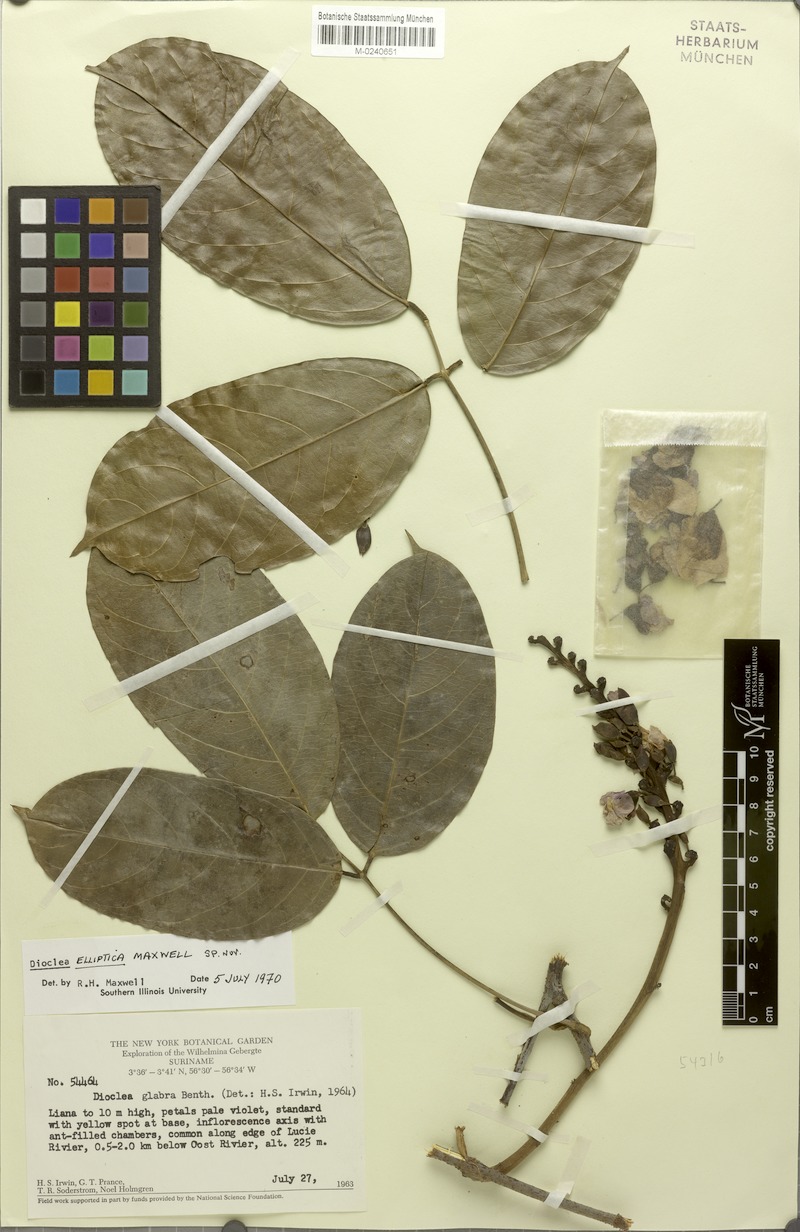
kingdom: Plantae
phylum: Tracheophyta
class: Magnoliopsida
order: Fabales
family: Fabaceae
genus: Macropsychanthus
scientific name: Macropsychanthus scaber
